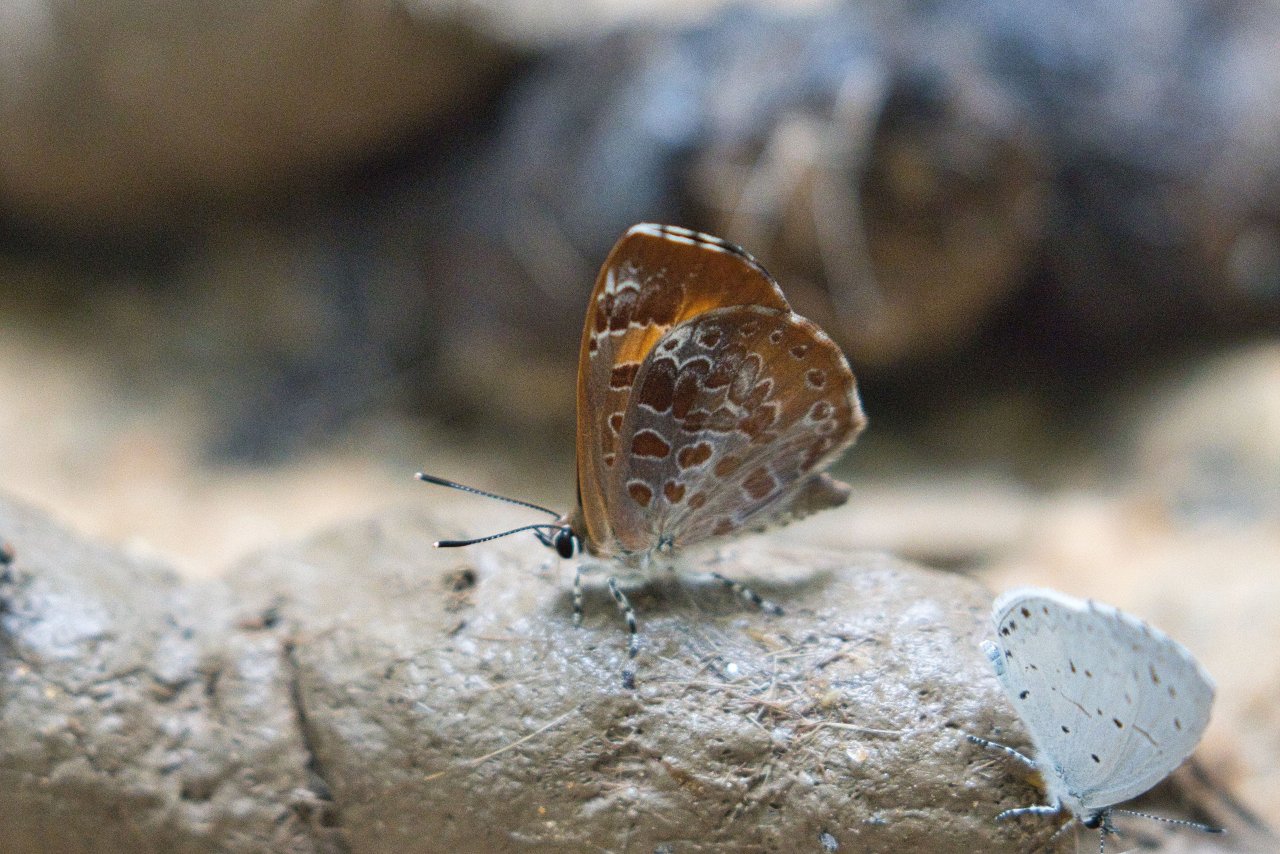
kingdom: Animalia
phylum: Arthropoda
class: Insecta
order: Lepidoptera
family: Lycaenidae
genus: Feniseca
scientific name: Feniseca tarquinius
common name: Harvester
